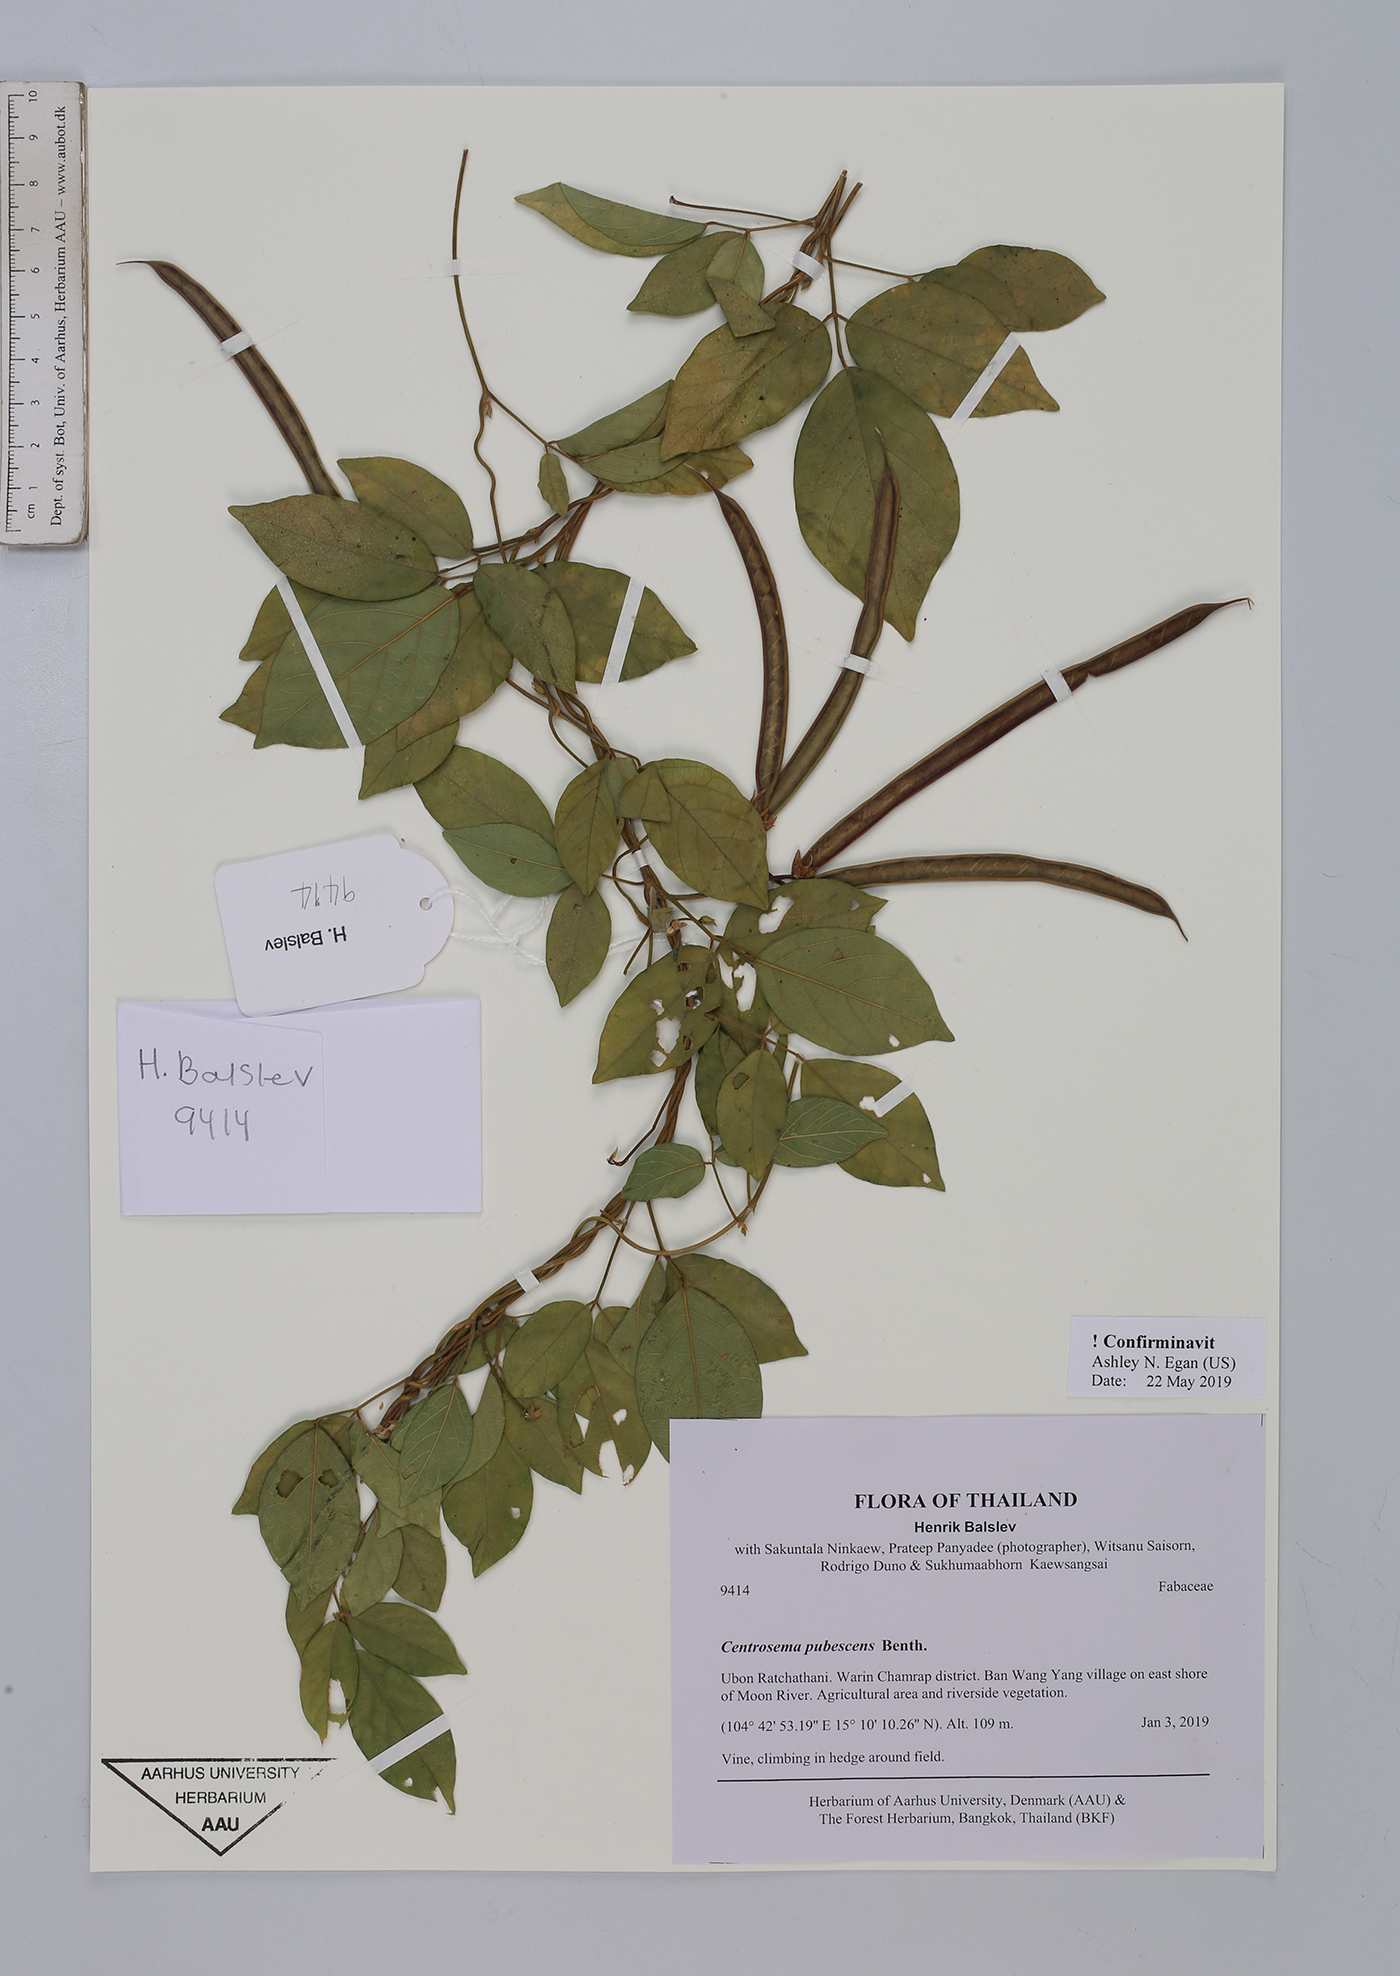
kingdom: Plantae
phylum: Tracheophyta
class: Magnoliopsida
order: Fabales
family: Fabaceae
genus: Centrosema
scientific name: Centrosema pubescens
